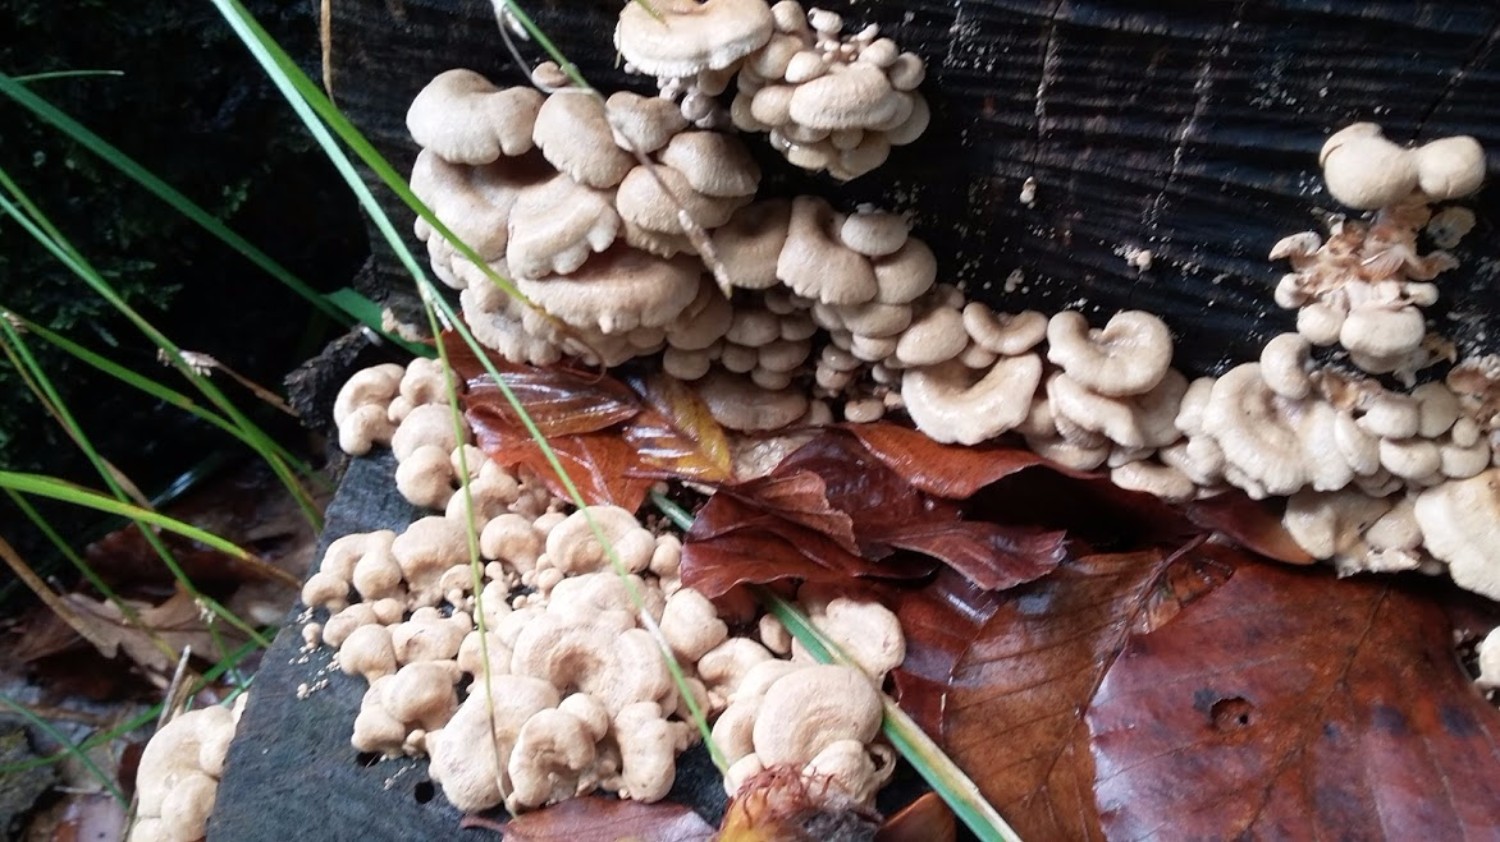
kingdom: Fungi
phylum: Basidiomycota
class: Agaricomycetes
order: Agaricales
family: Mycenaceae
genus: Panellus
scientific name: Panellus stipticus
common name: kliddet epaulethat
